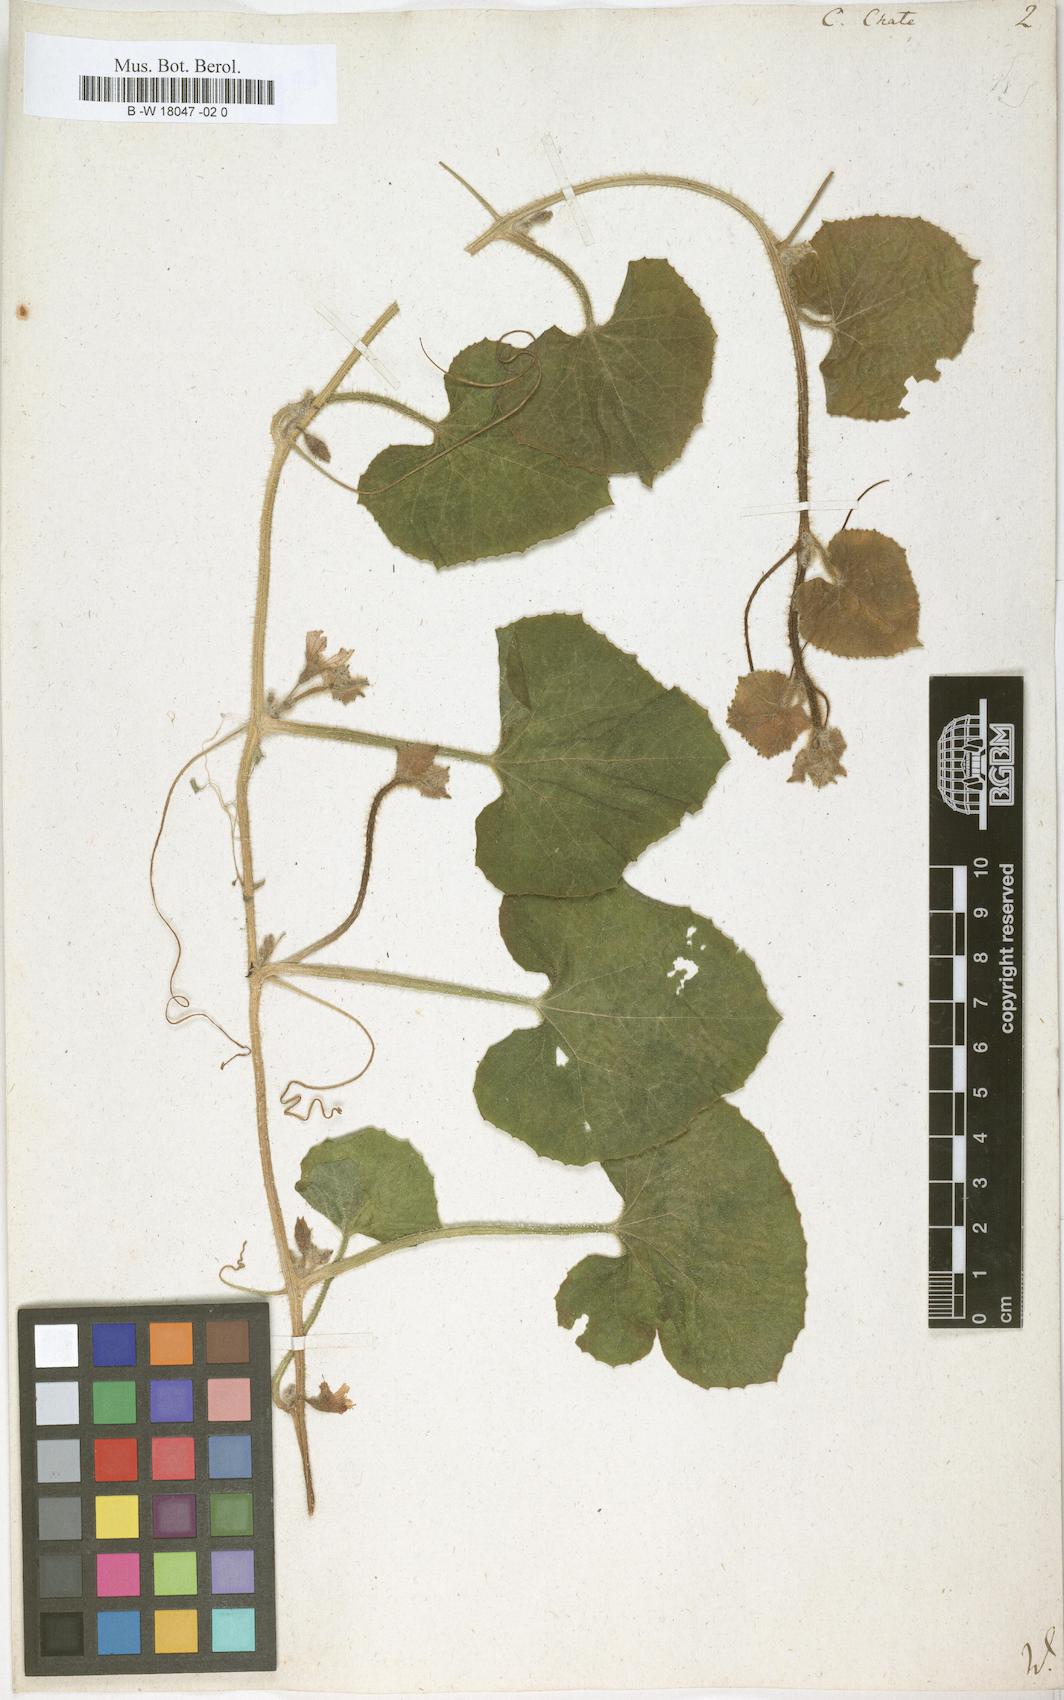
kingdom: Plantae
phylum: Tracheophyta
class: Magnoliopsida
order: Cucurbitales
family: Cucurbitaceae
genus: Cucumis
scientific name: Cucumis melo
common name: Melon
